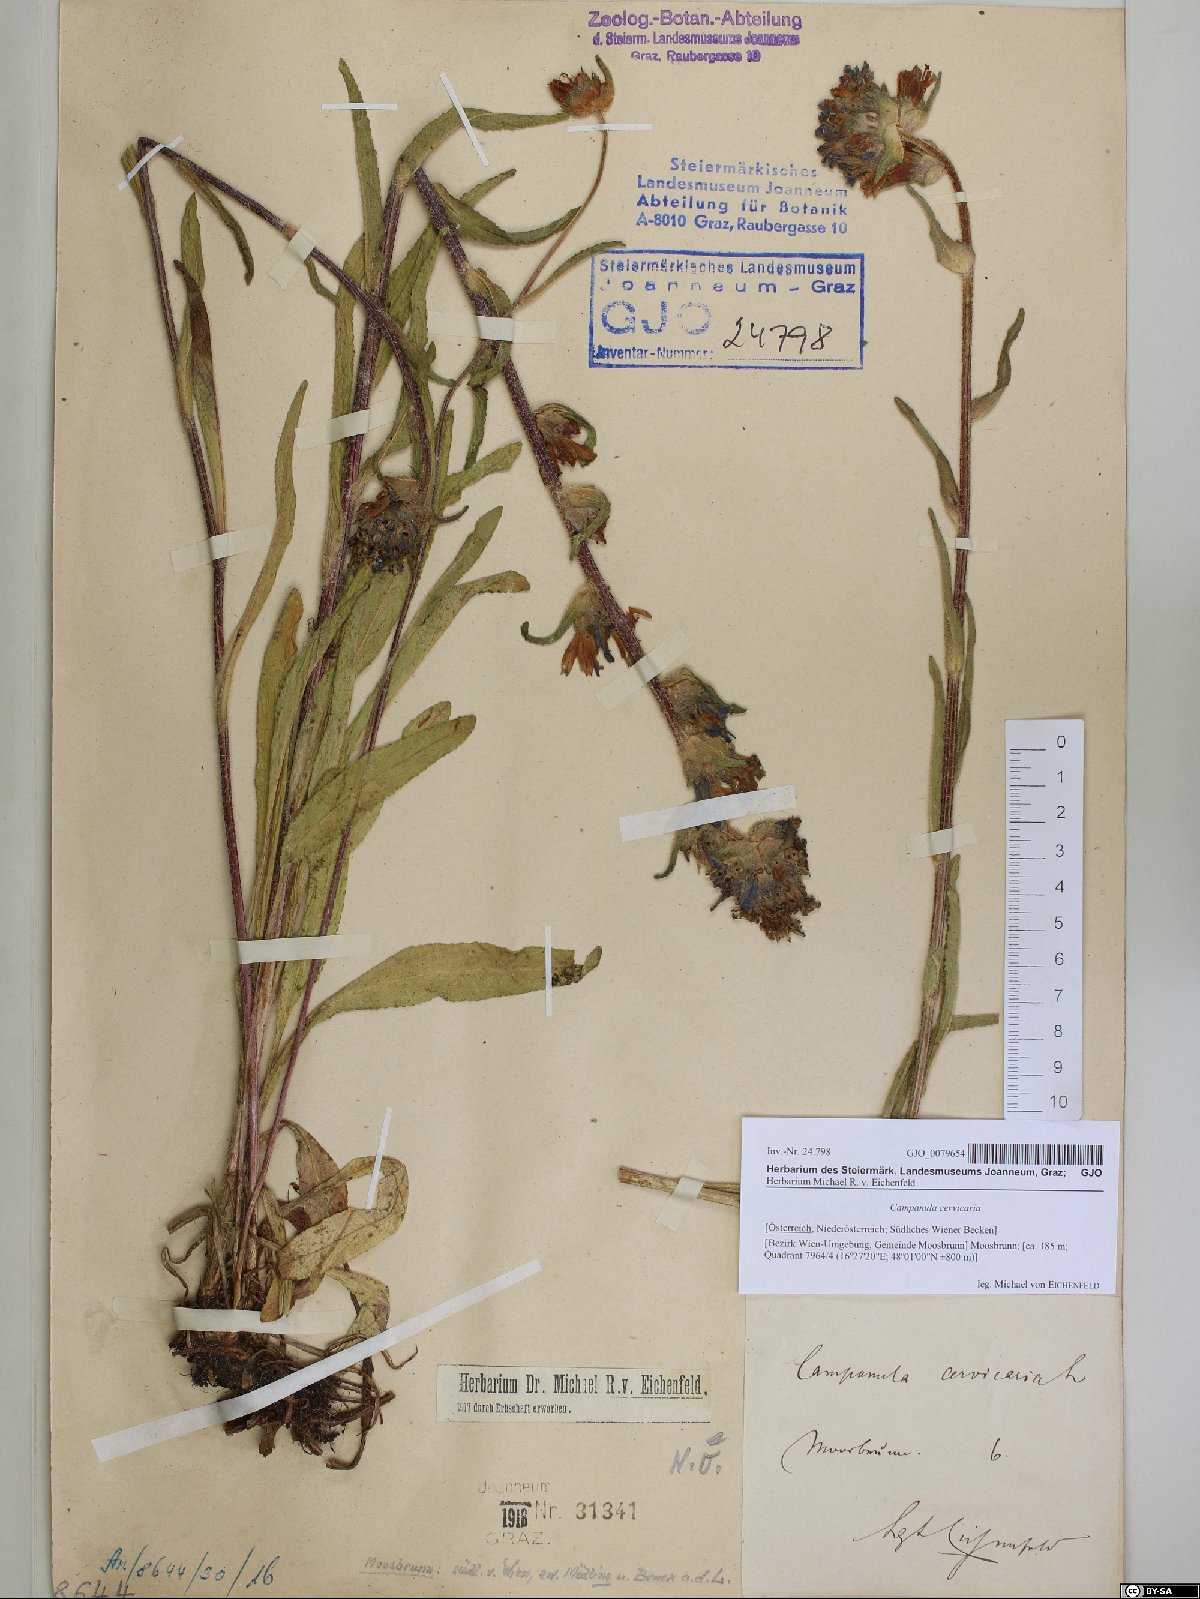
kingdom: Plantae
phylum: Tracheophyta
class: Magnoliopsida
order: Asterales
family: Campanulaceae
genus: Campanula
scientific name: Campanula cervicaria
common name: Bristly bellflower
